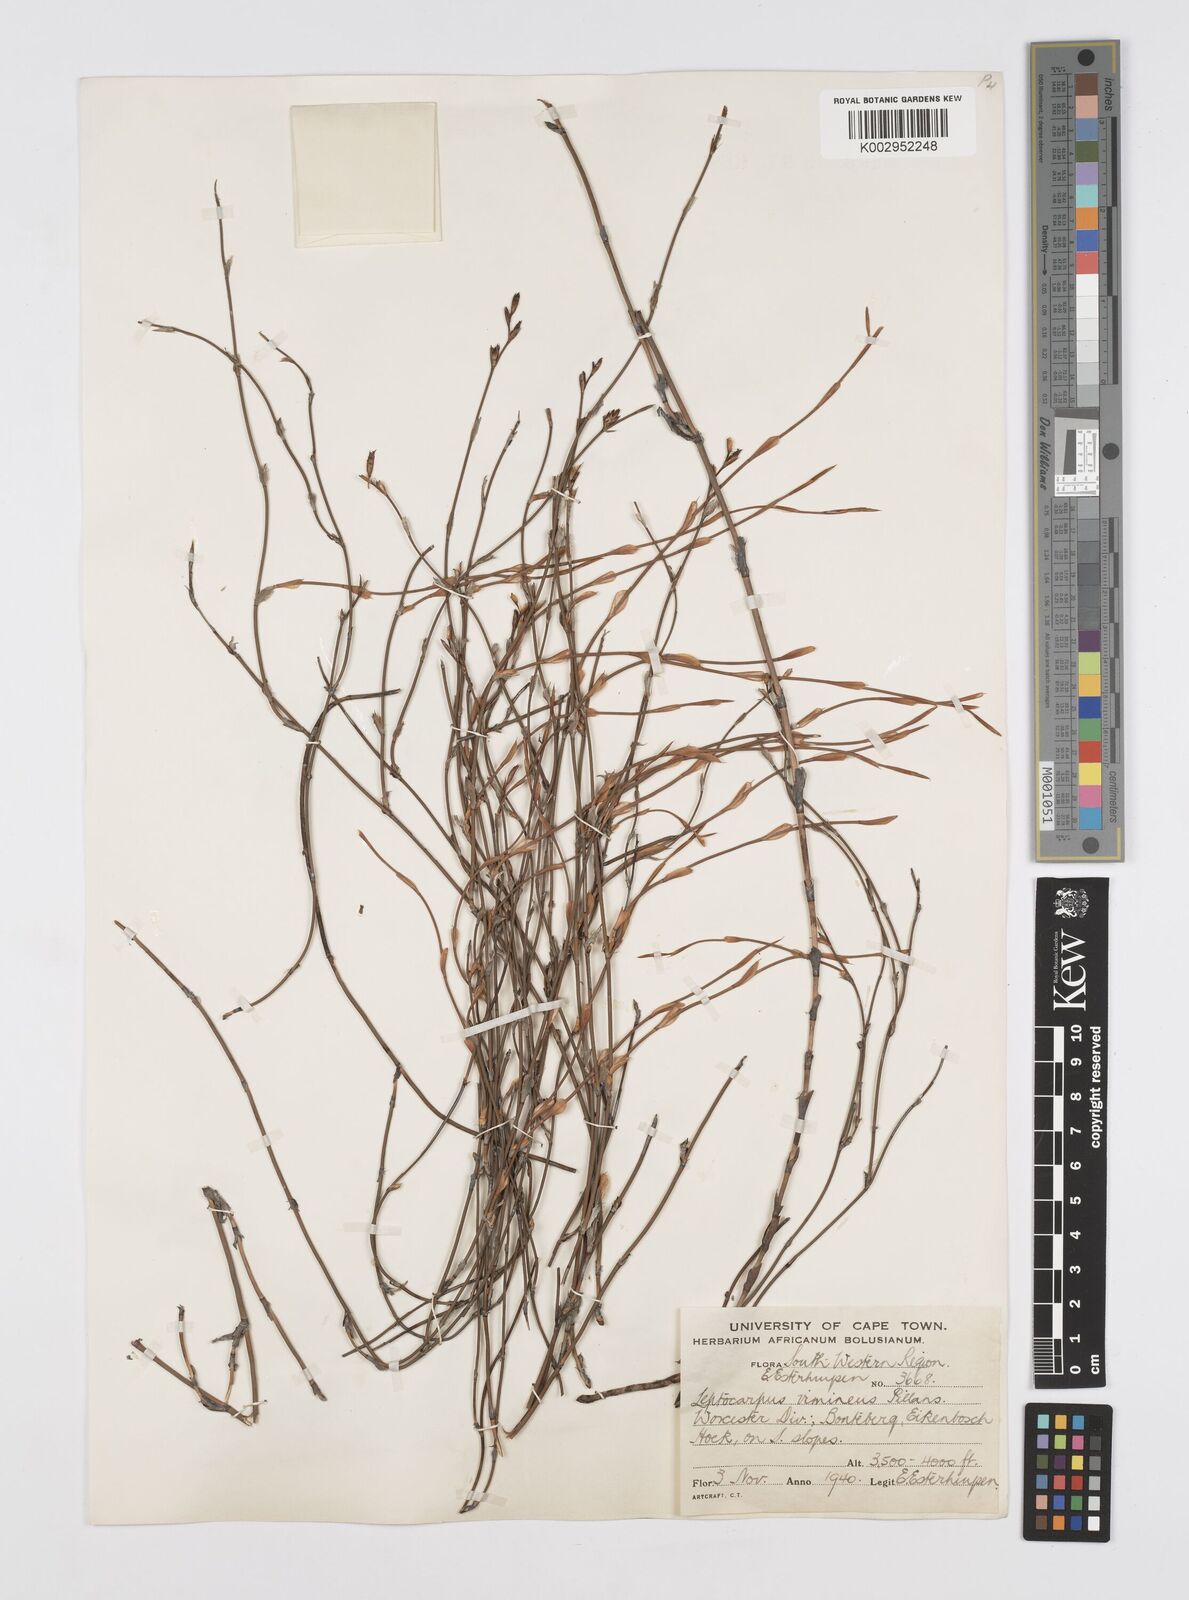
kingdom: Plantae
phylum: Tracheophyta
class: Liliopsida
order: Poales
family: Restionaceae
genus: Restio
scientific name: Restio vimineus
